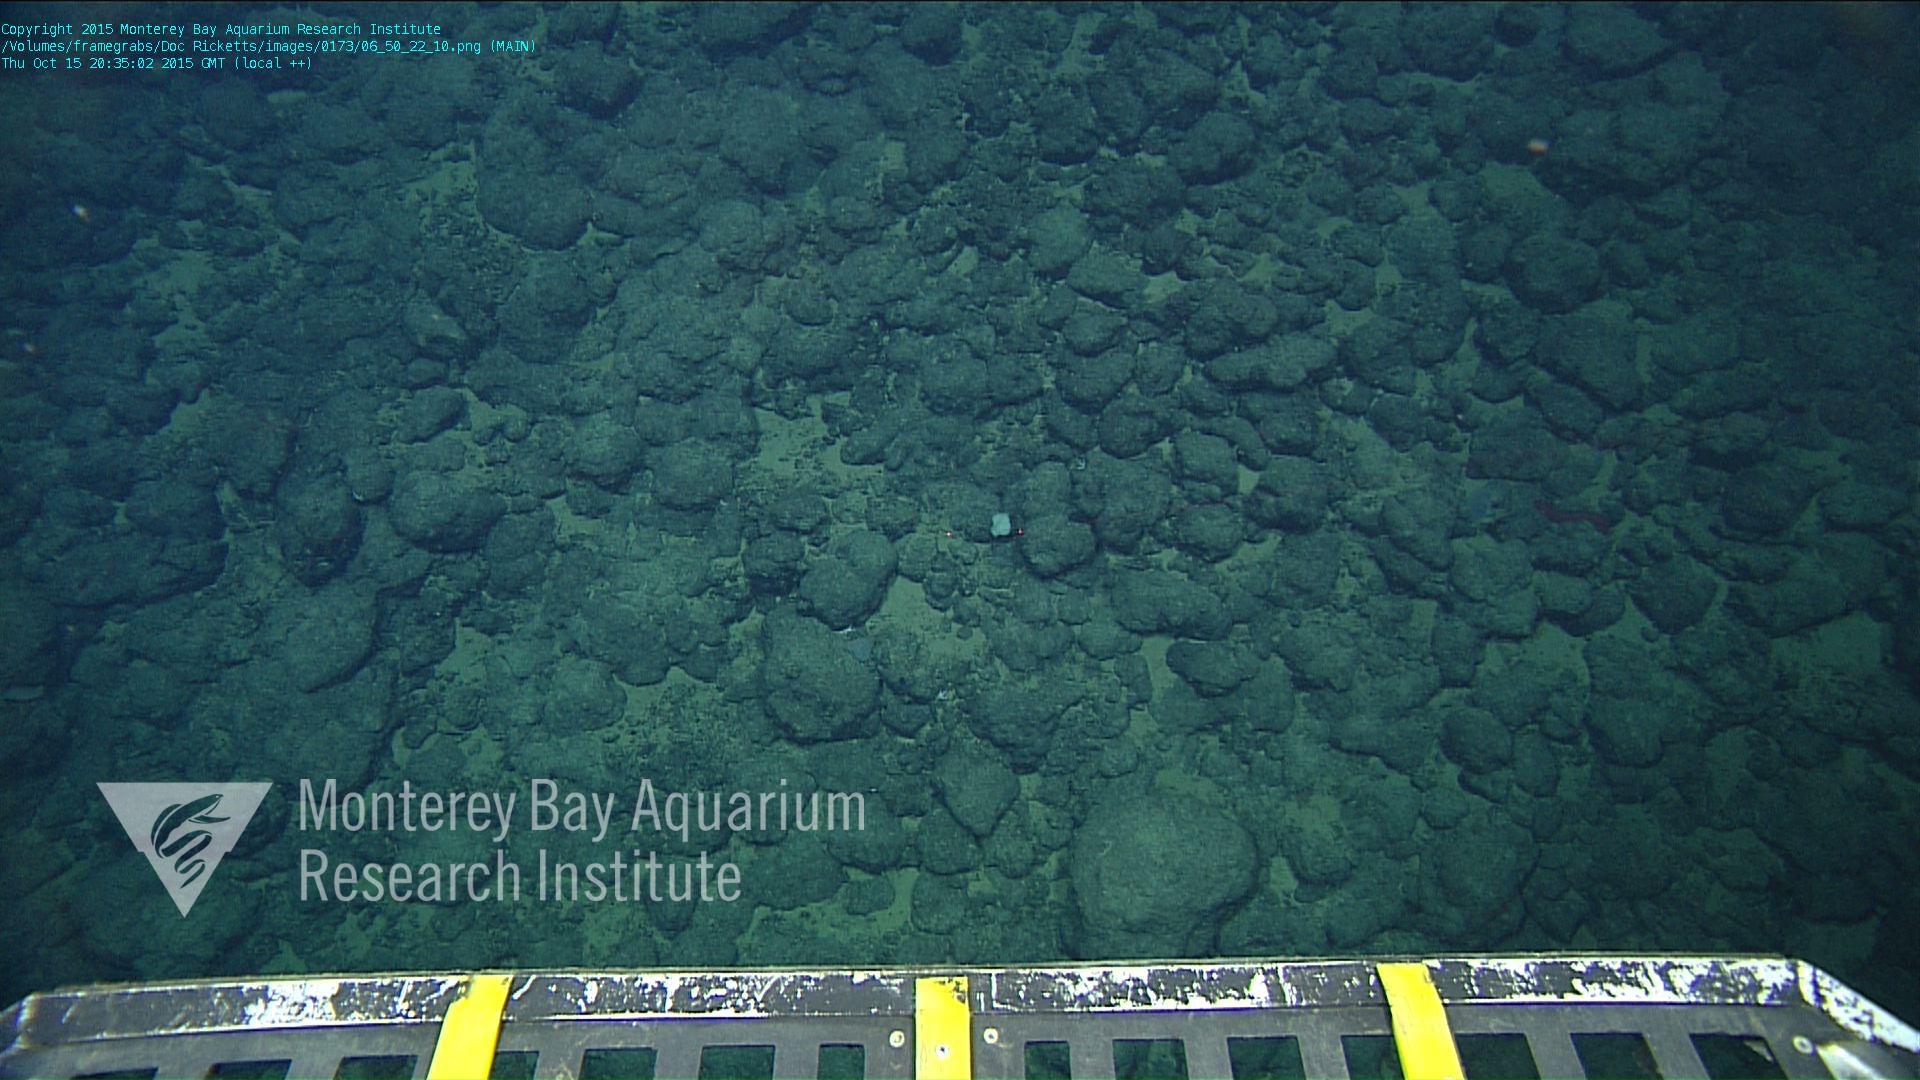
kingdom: Animalia
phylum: Porifera
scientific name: Porifera
